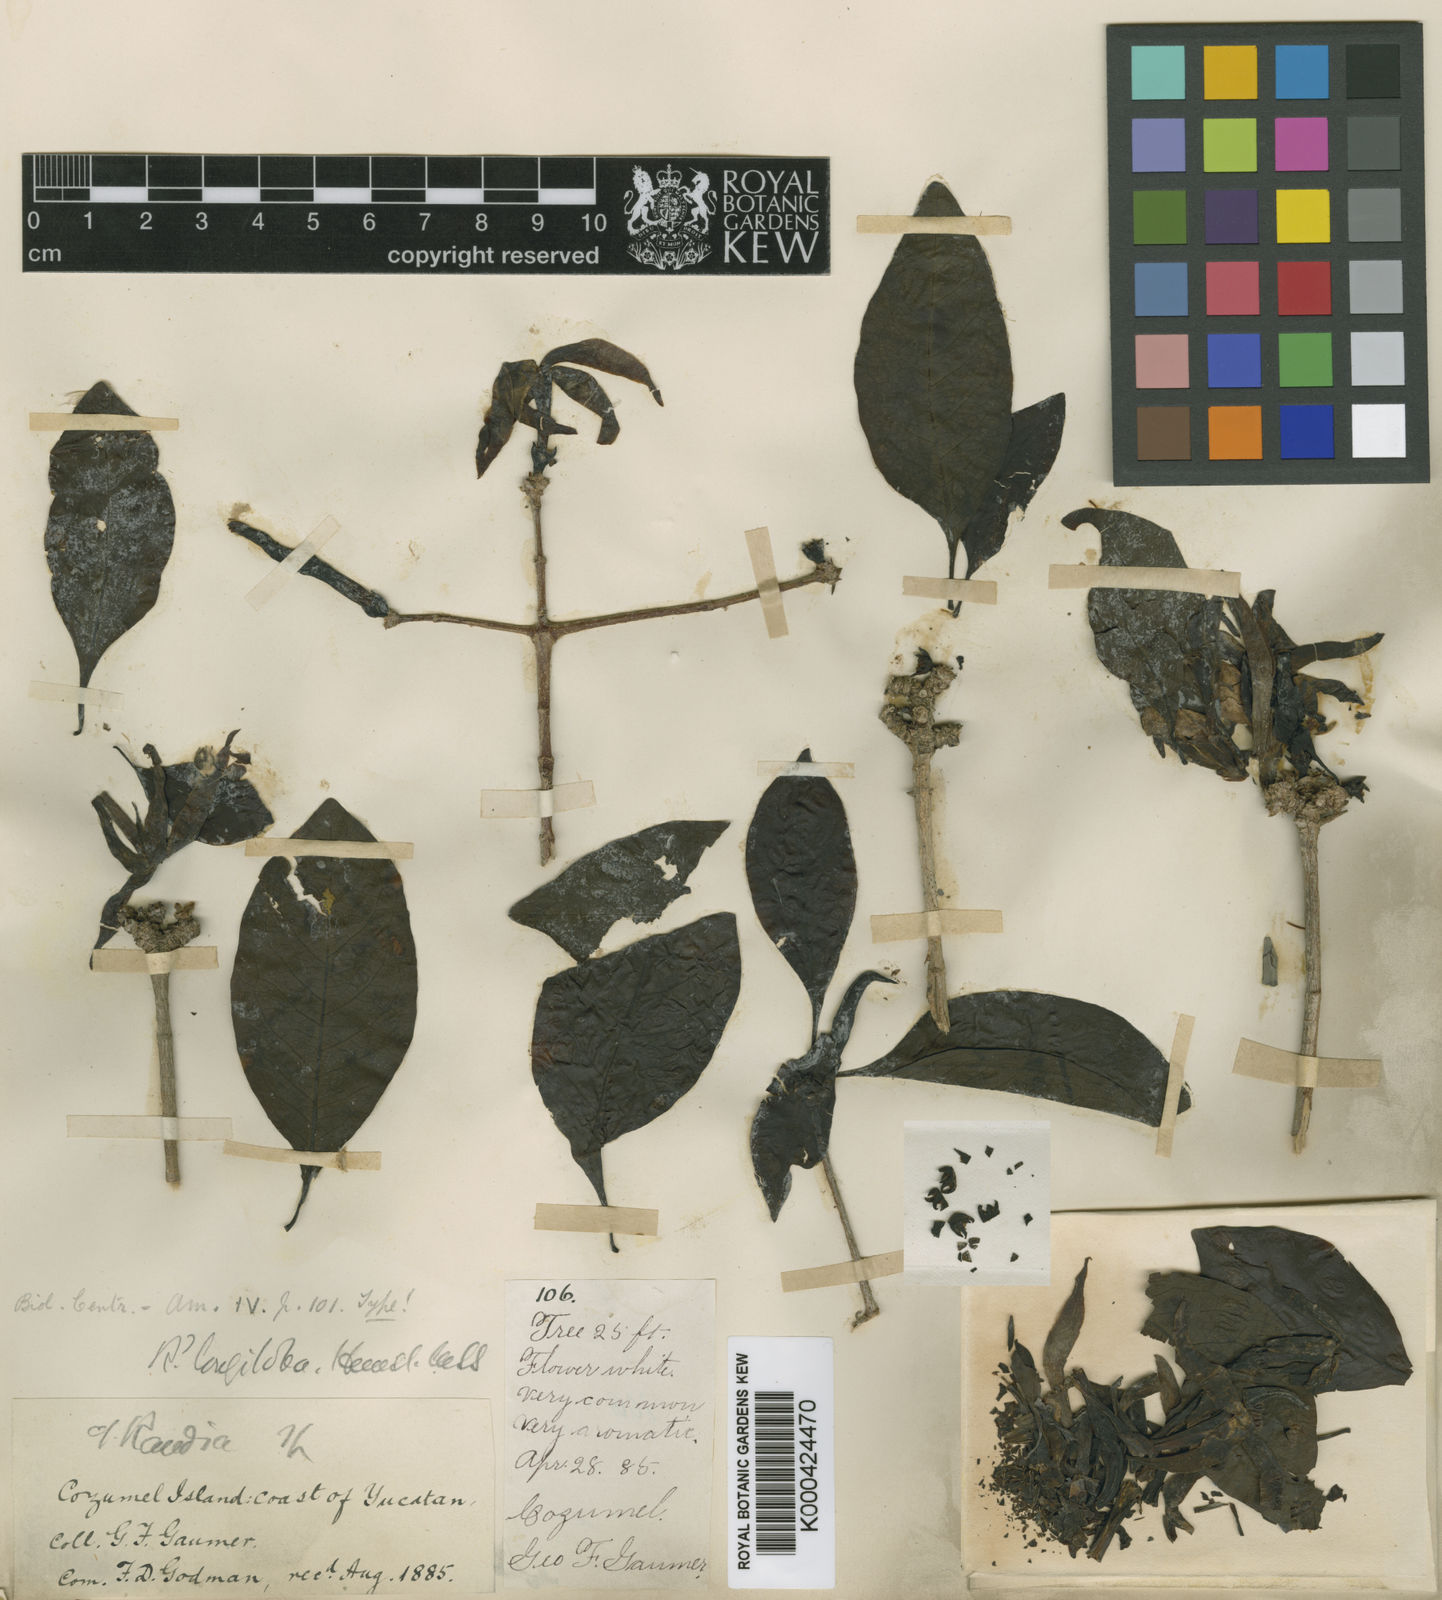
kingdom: Plantae
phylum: Tracheophyta
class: Magnoliopsida
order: Gentianales
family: Rubiaceae
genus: Randia
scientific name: Randia longiloba
